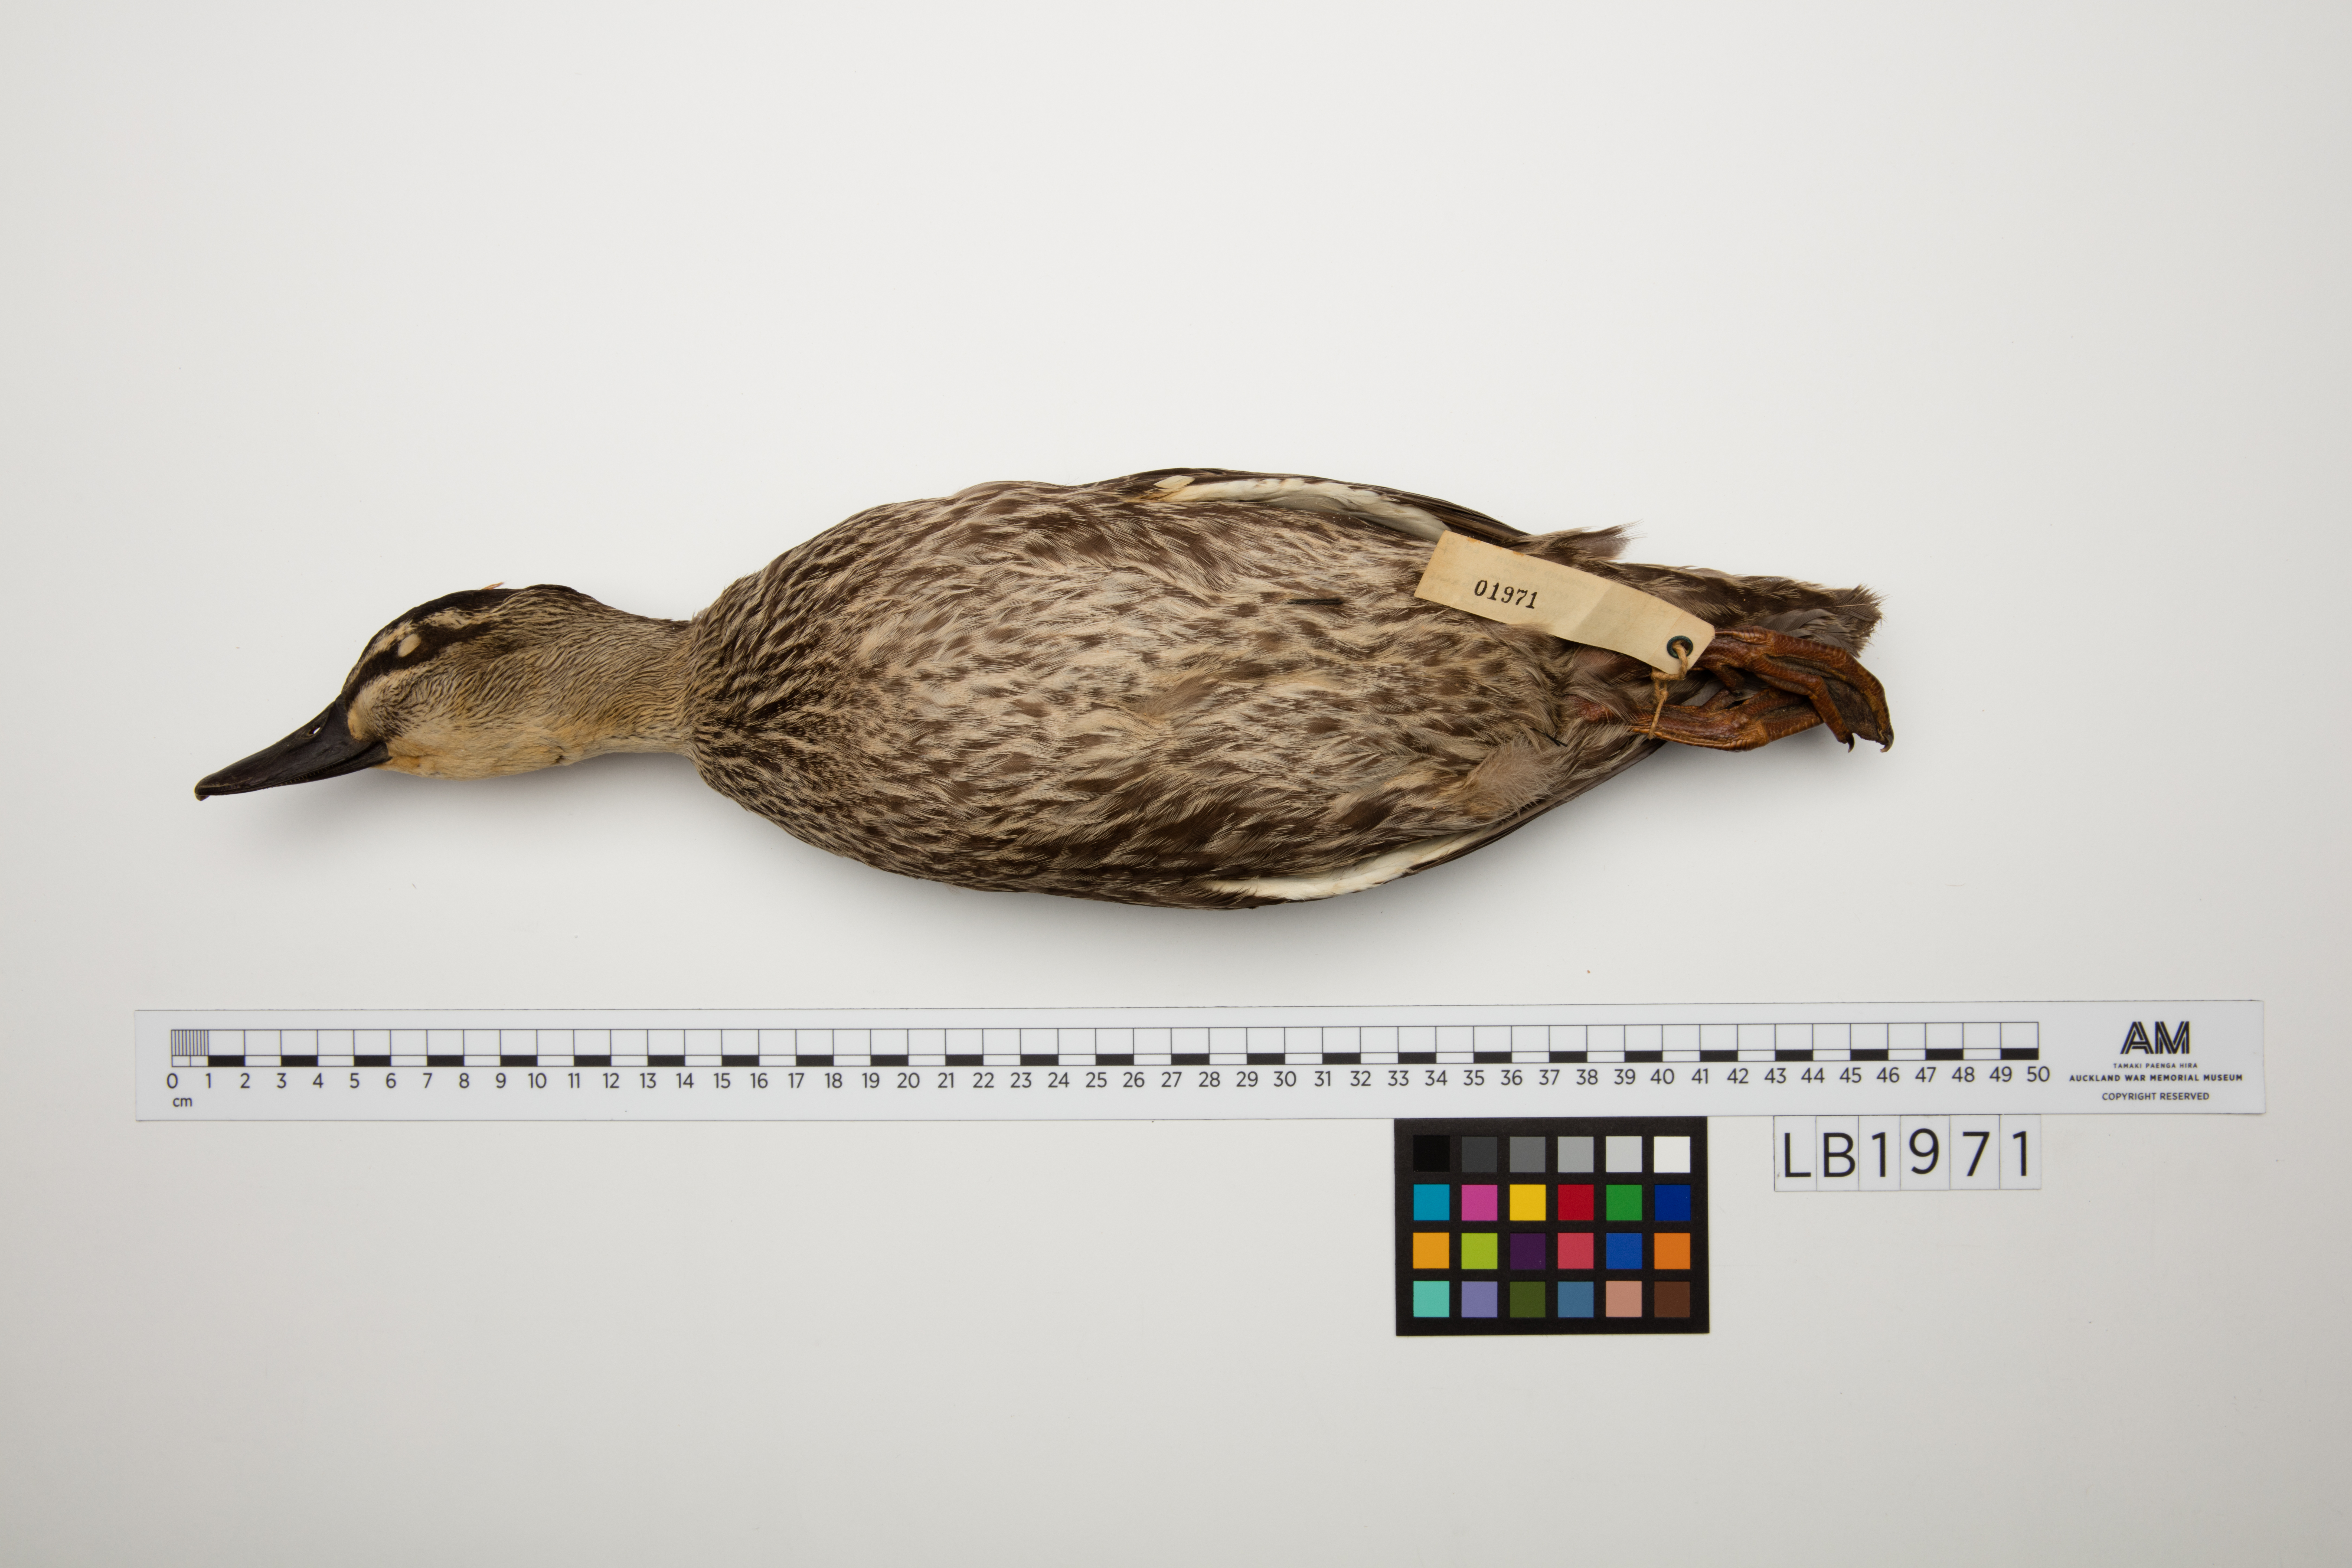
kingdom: Animalia
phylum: Chordata
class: Aves
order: Anseriformes
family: Anatidae
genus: Anas
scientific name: Anas superciliosa
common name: Pacific black duck
